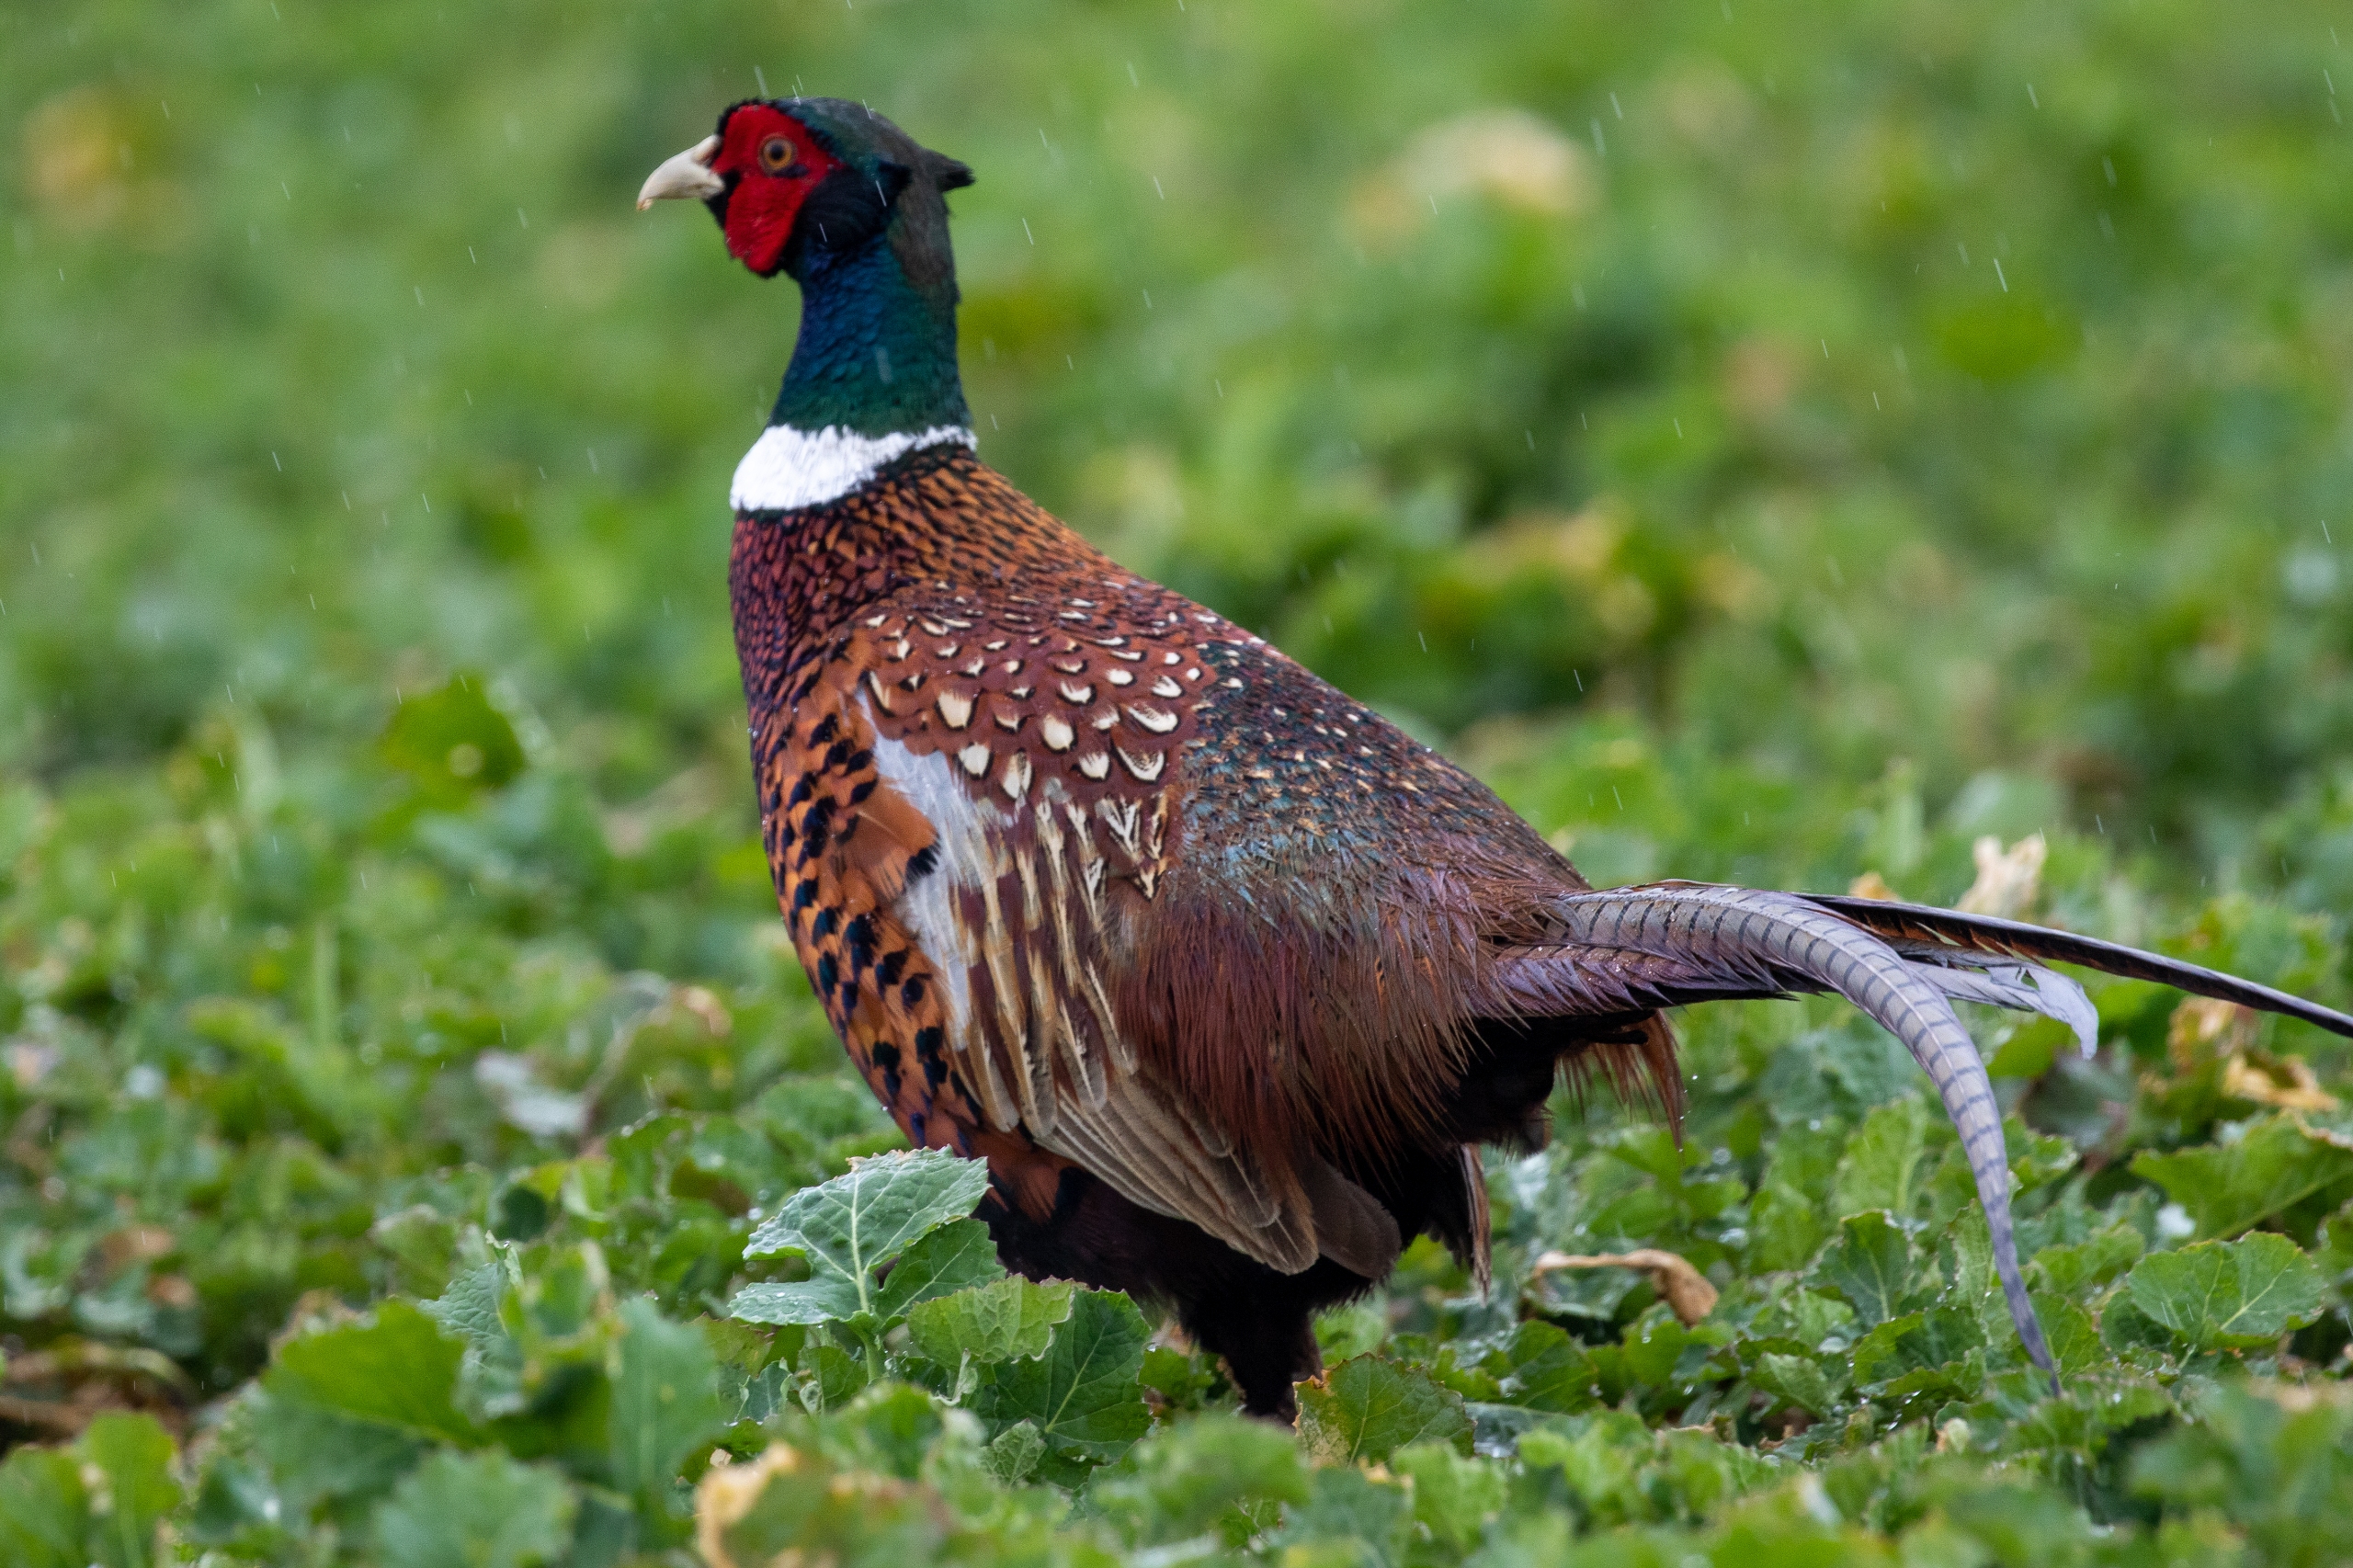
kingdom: Animalia
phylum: Chordata
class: Aves
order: Galliformes
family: Phasianidae
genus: Phasianus
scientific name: Phasianus colchicus
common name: Fasan
